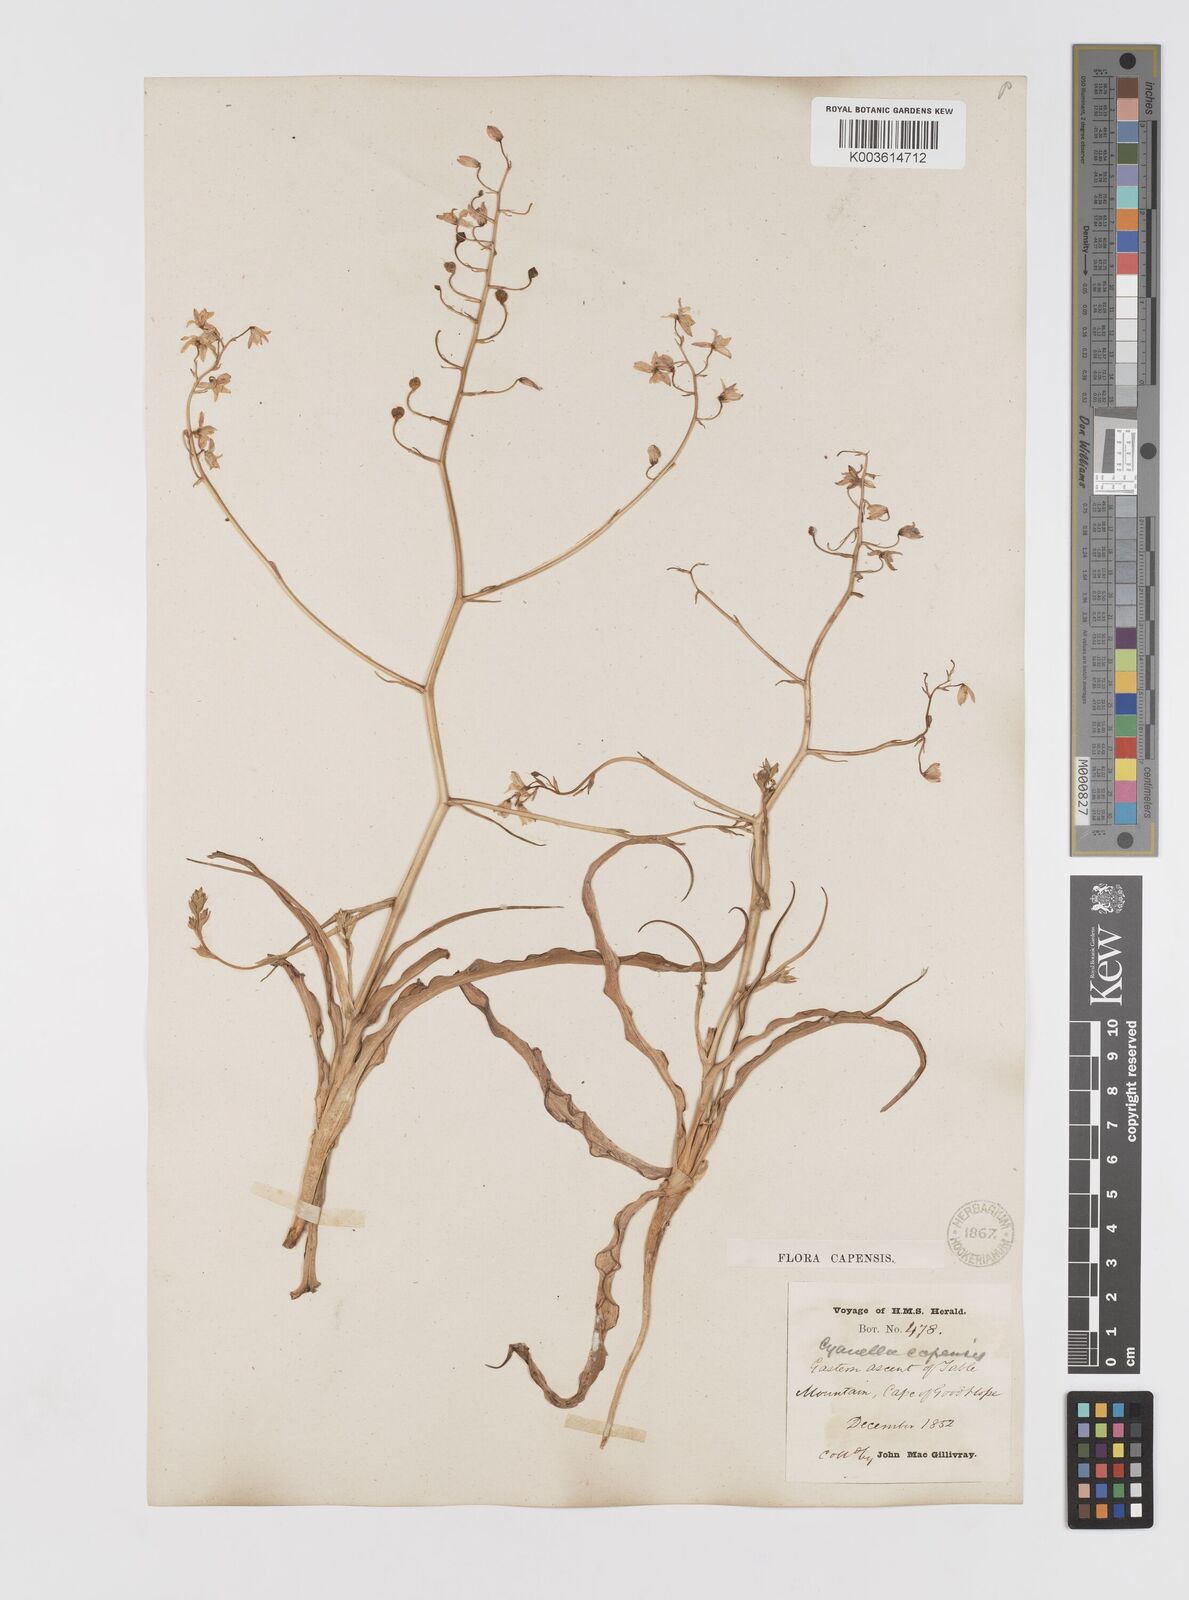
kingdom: Plantae
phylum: Tracheophyta
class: Liliopsida
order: Asparagales
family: Tecophilaeaceae
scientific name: Tecophilaeaceae
